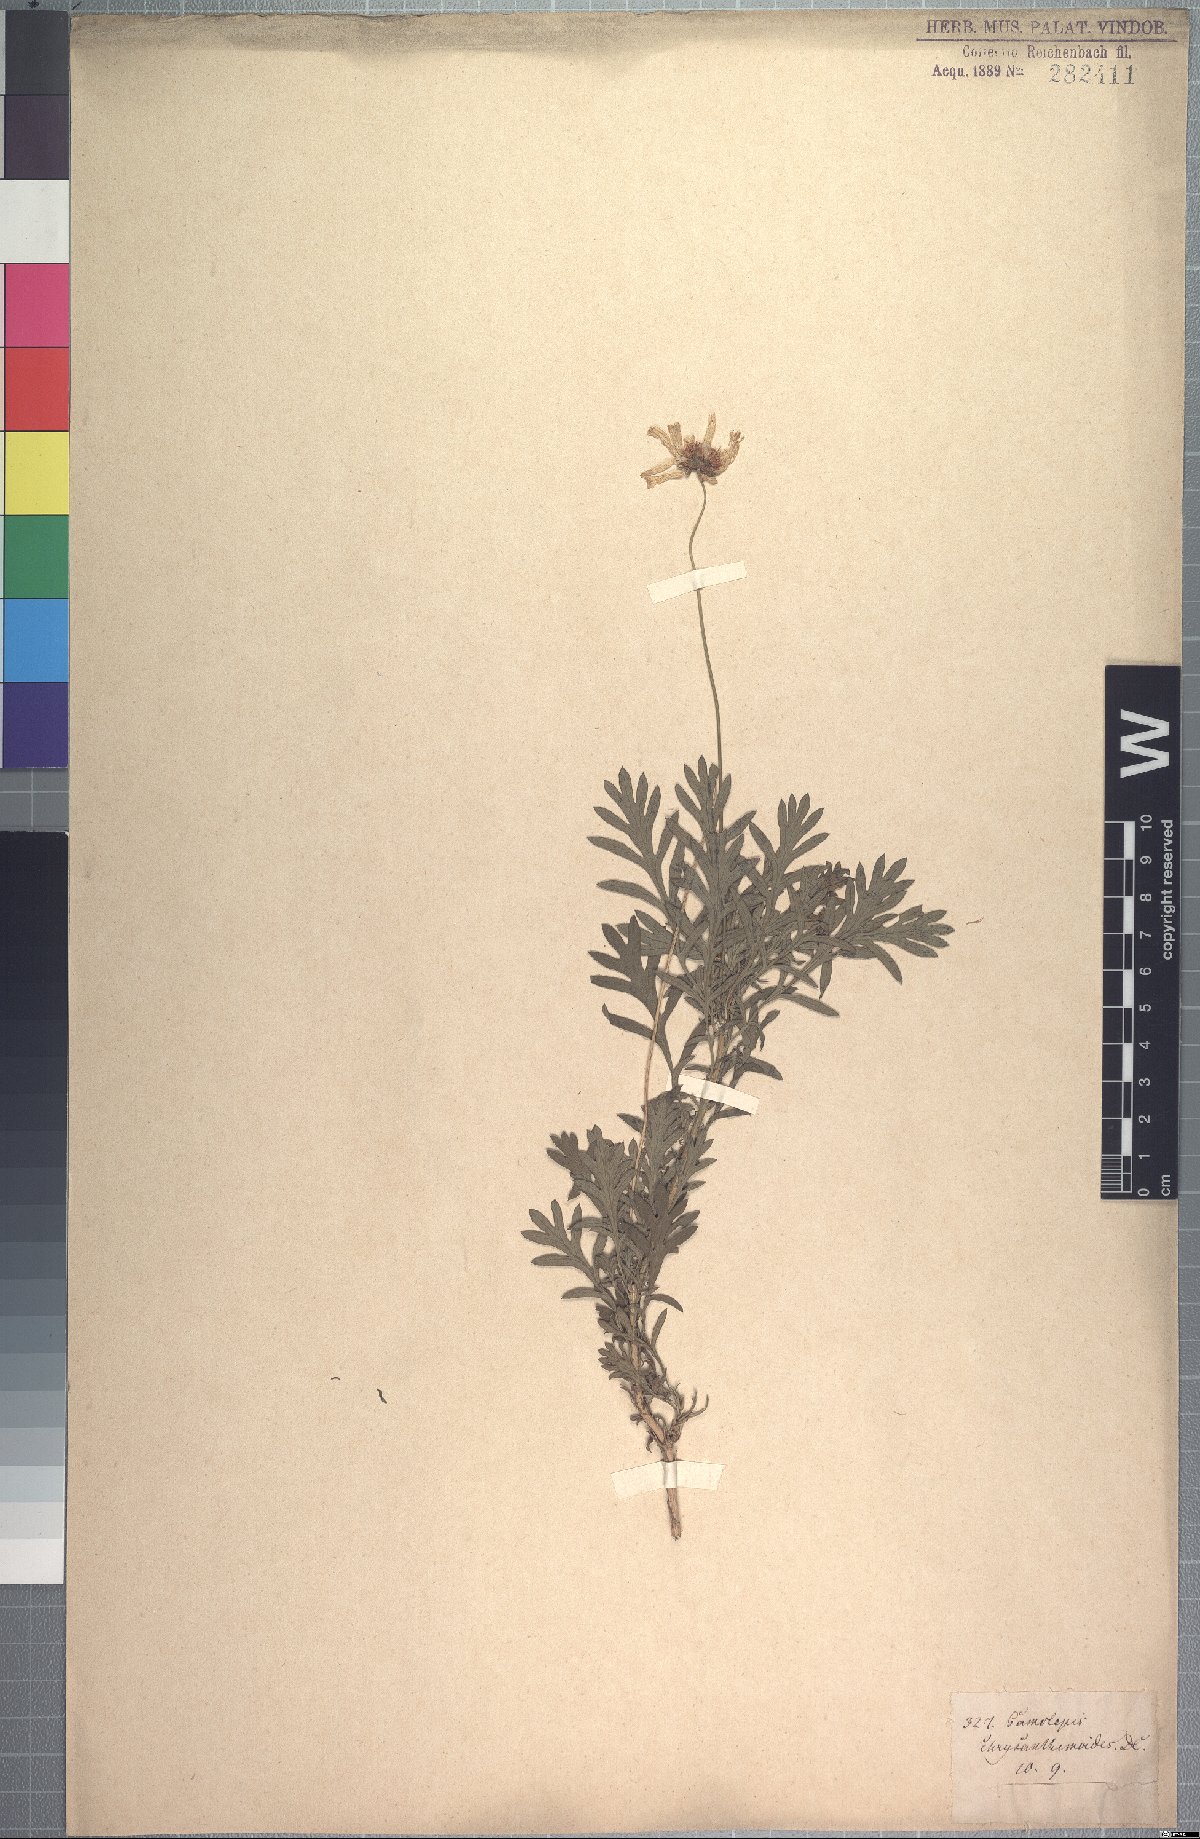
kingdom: Plantae
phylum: Tracheophyta
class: Magnoliopsida
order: Asterales
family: Asteraceae
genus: Euryops
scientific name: Euryops chrysanthemoides
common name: Bull's eye
